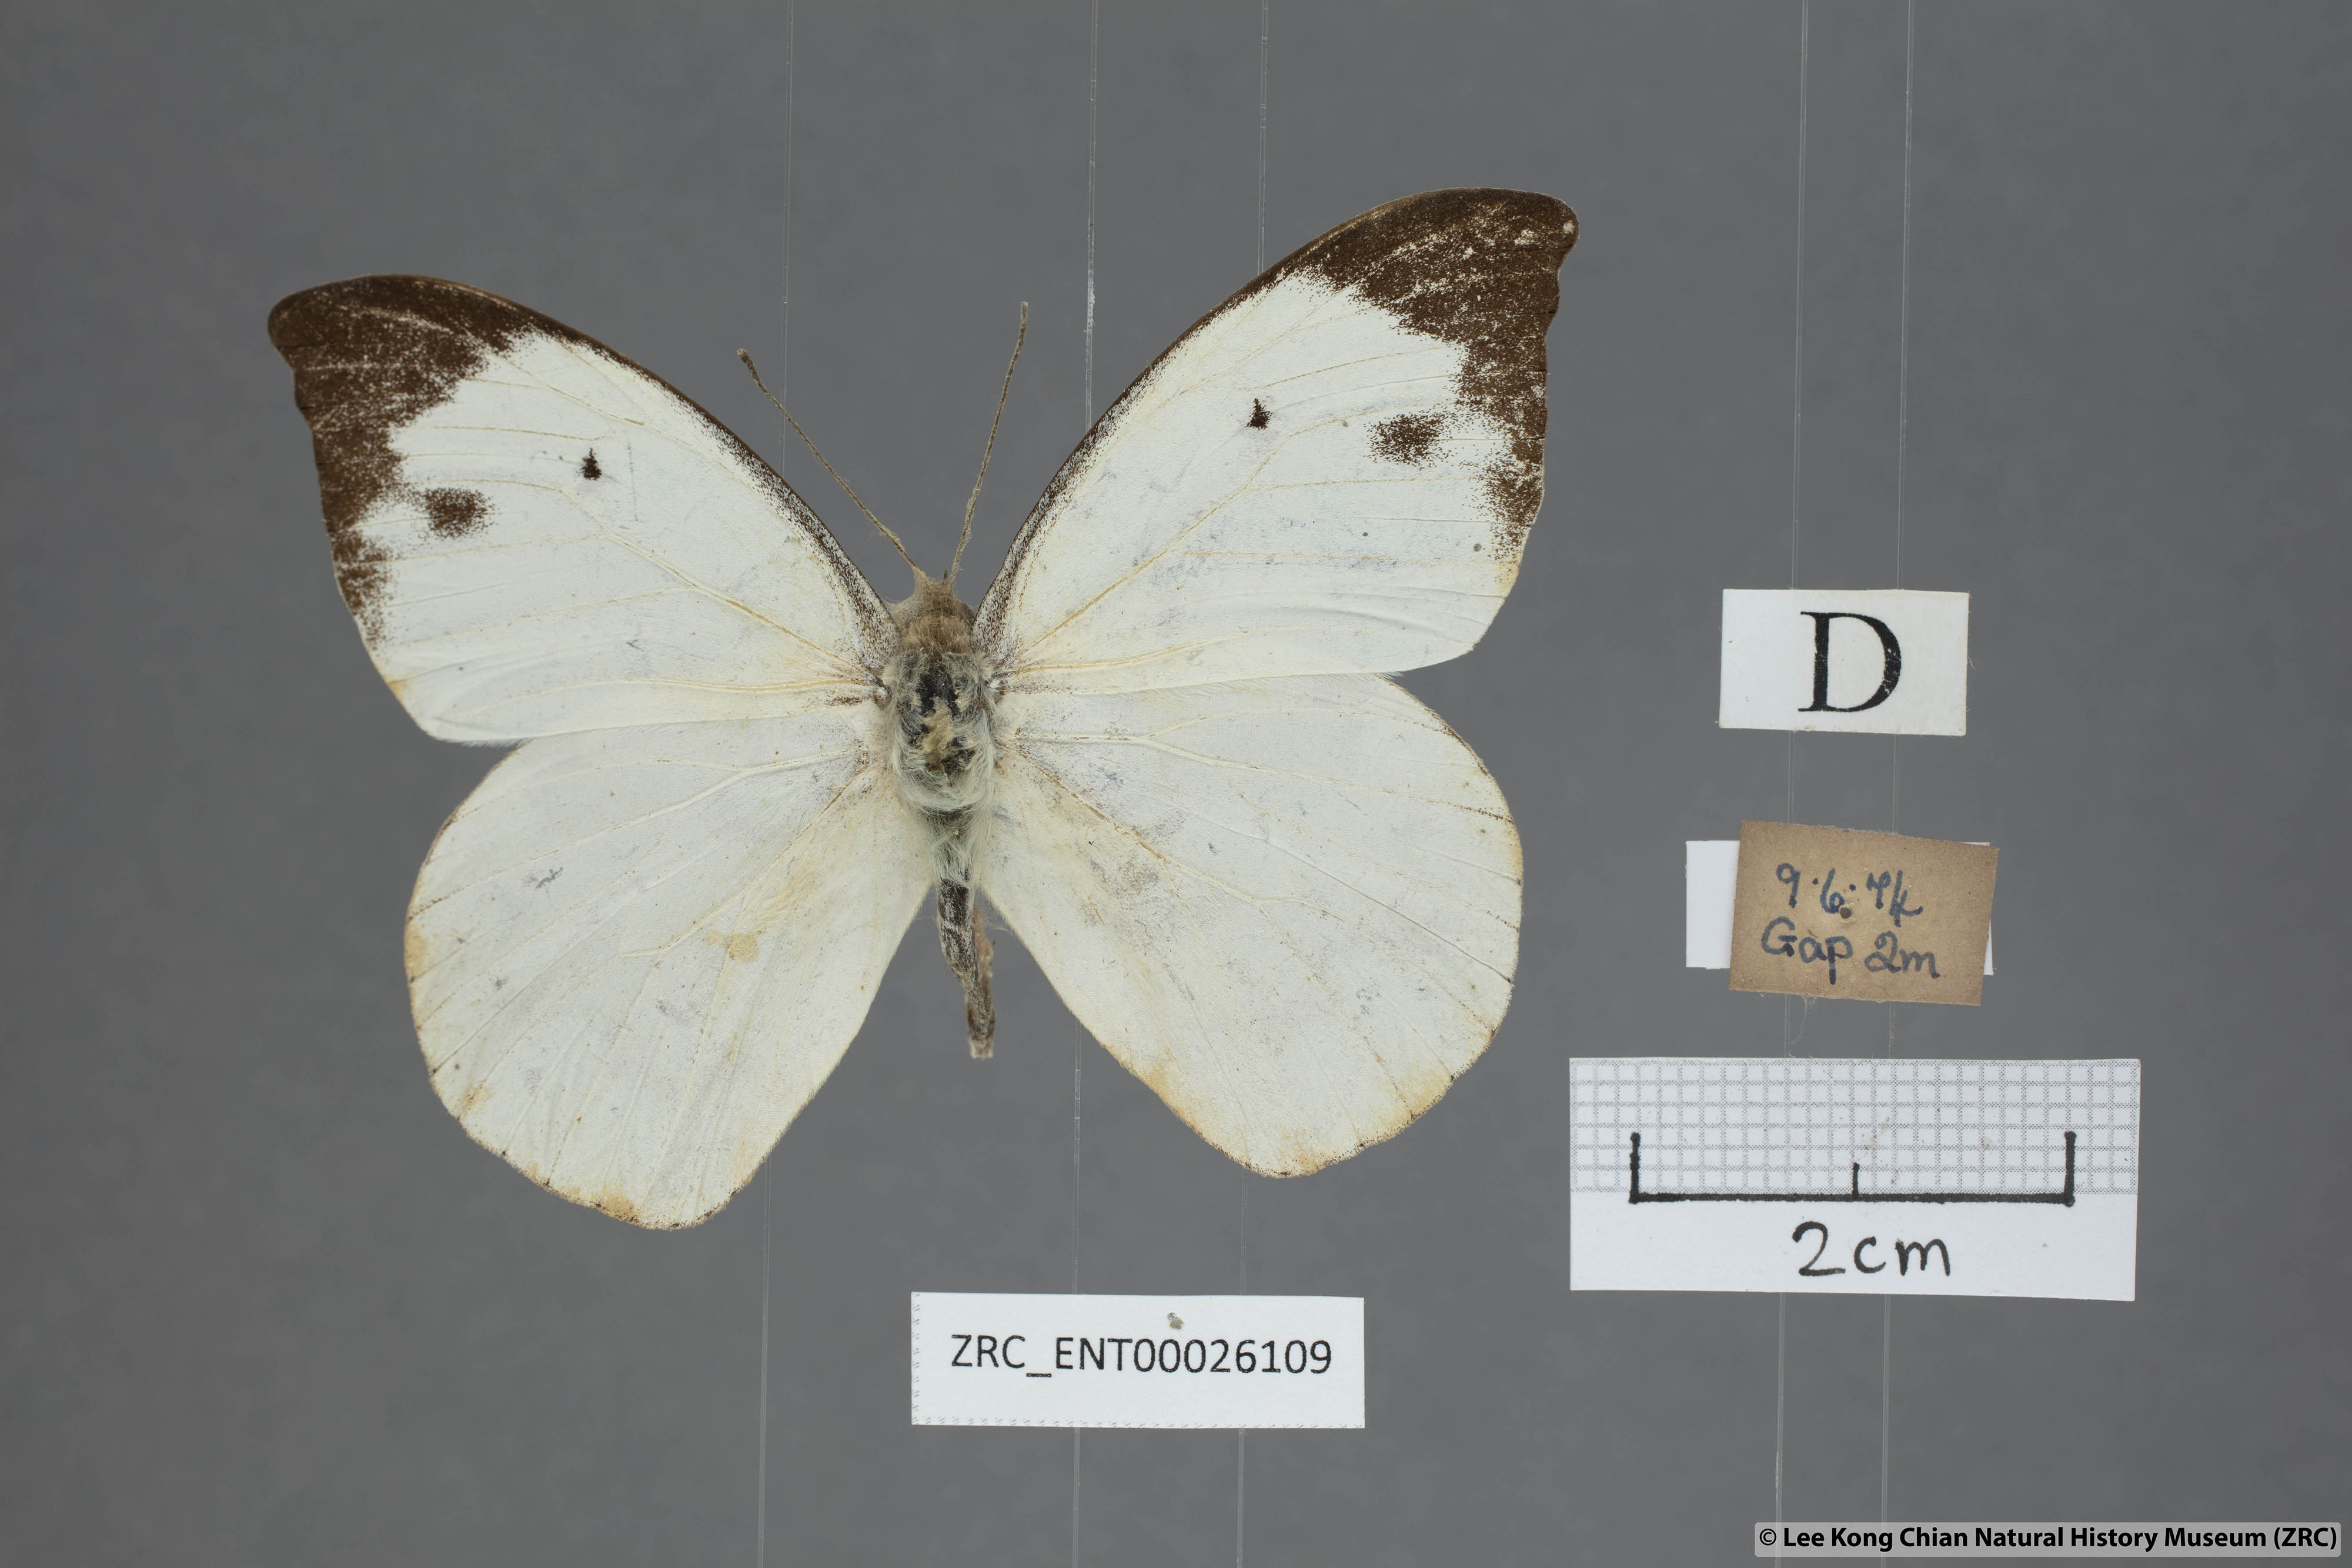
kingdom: Animalia
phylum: Arthropoda
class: Insecta
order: Lepidoptera
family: Pieridae
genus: Appias
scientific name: Appias lalassis
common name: Burmese puffin
